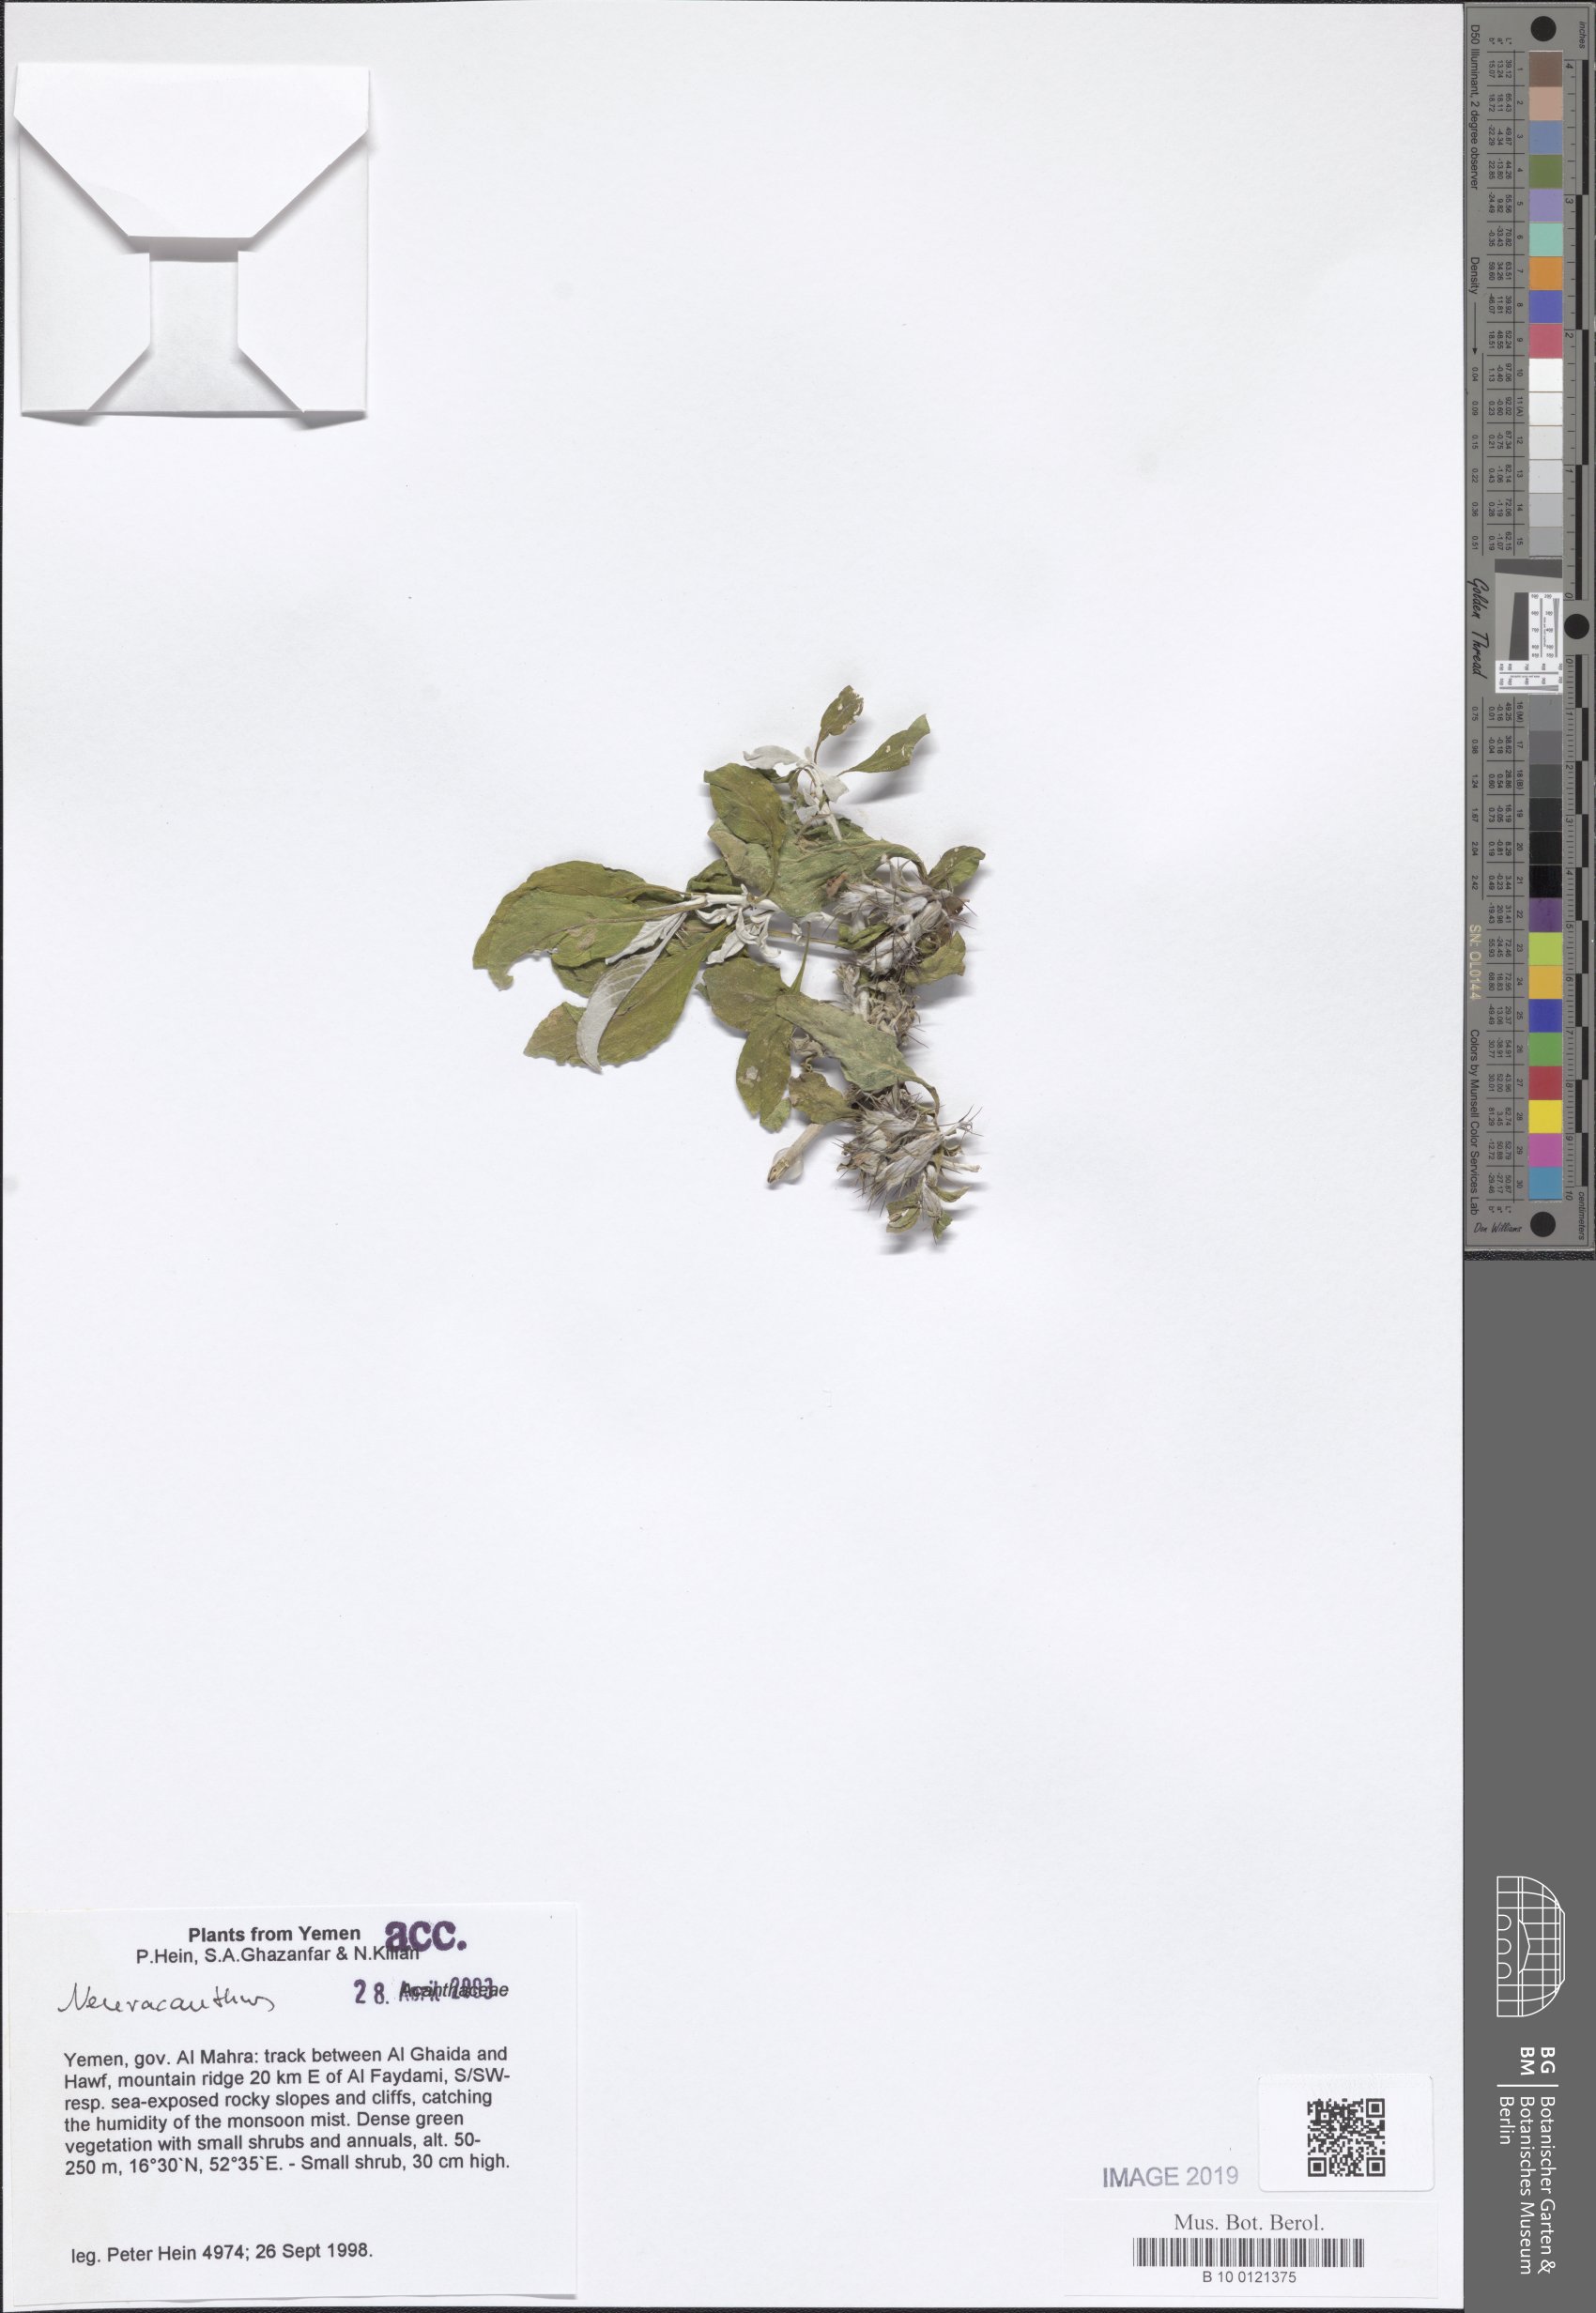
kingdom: Plantae
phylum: Tracheophyta
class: Magnoliopsida
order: Lamiales
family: Acanthaceae
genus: Neuracanthus
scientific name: Neuracanthus
